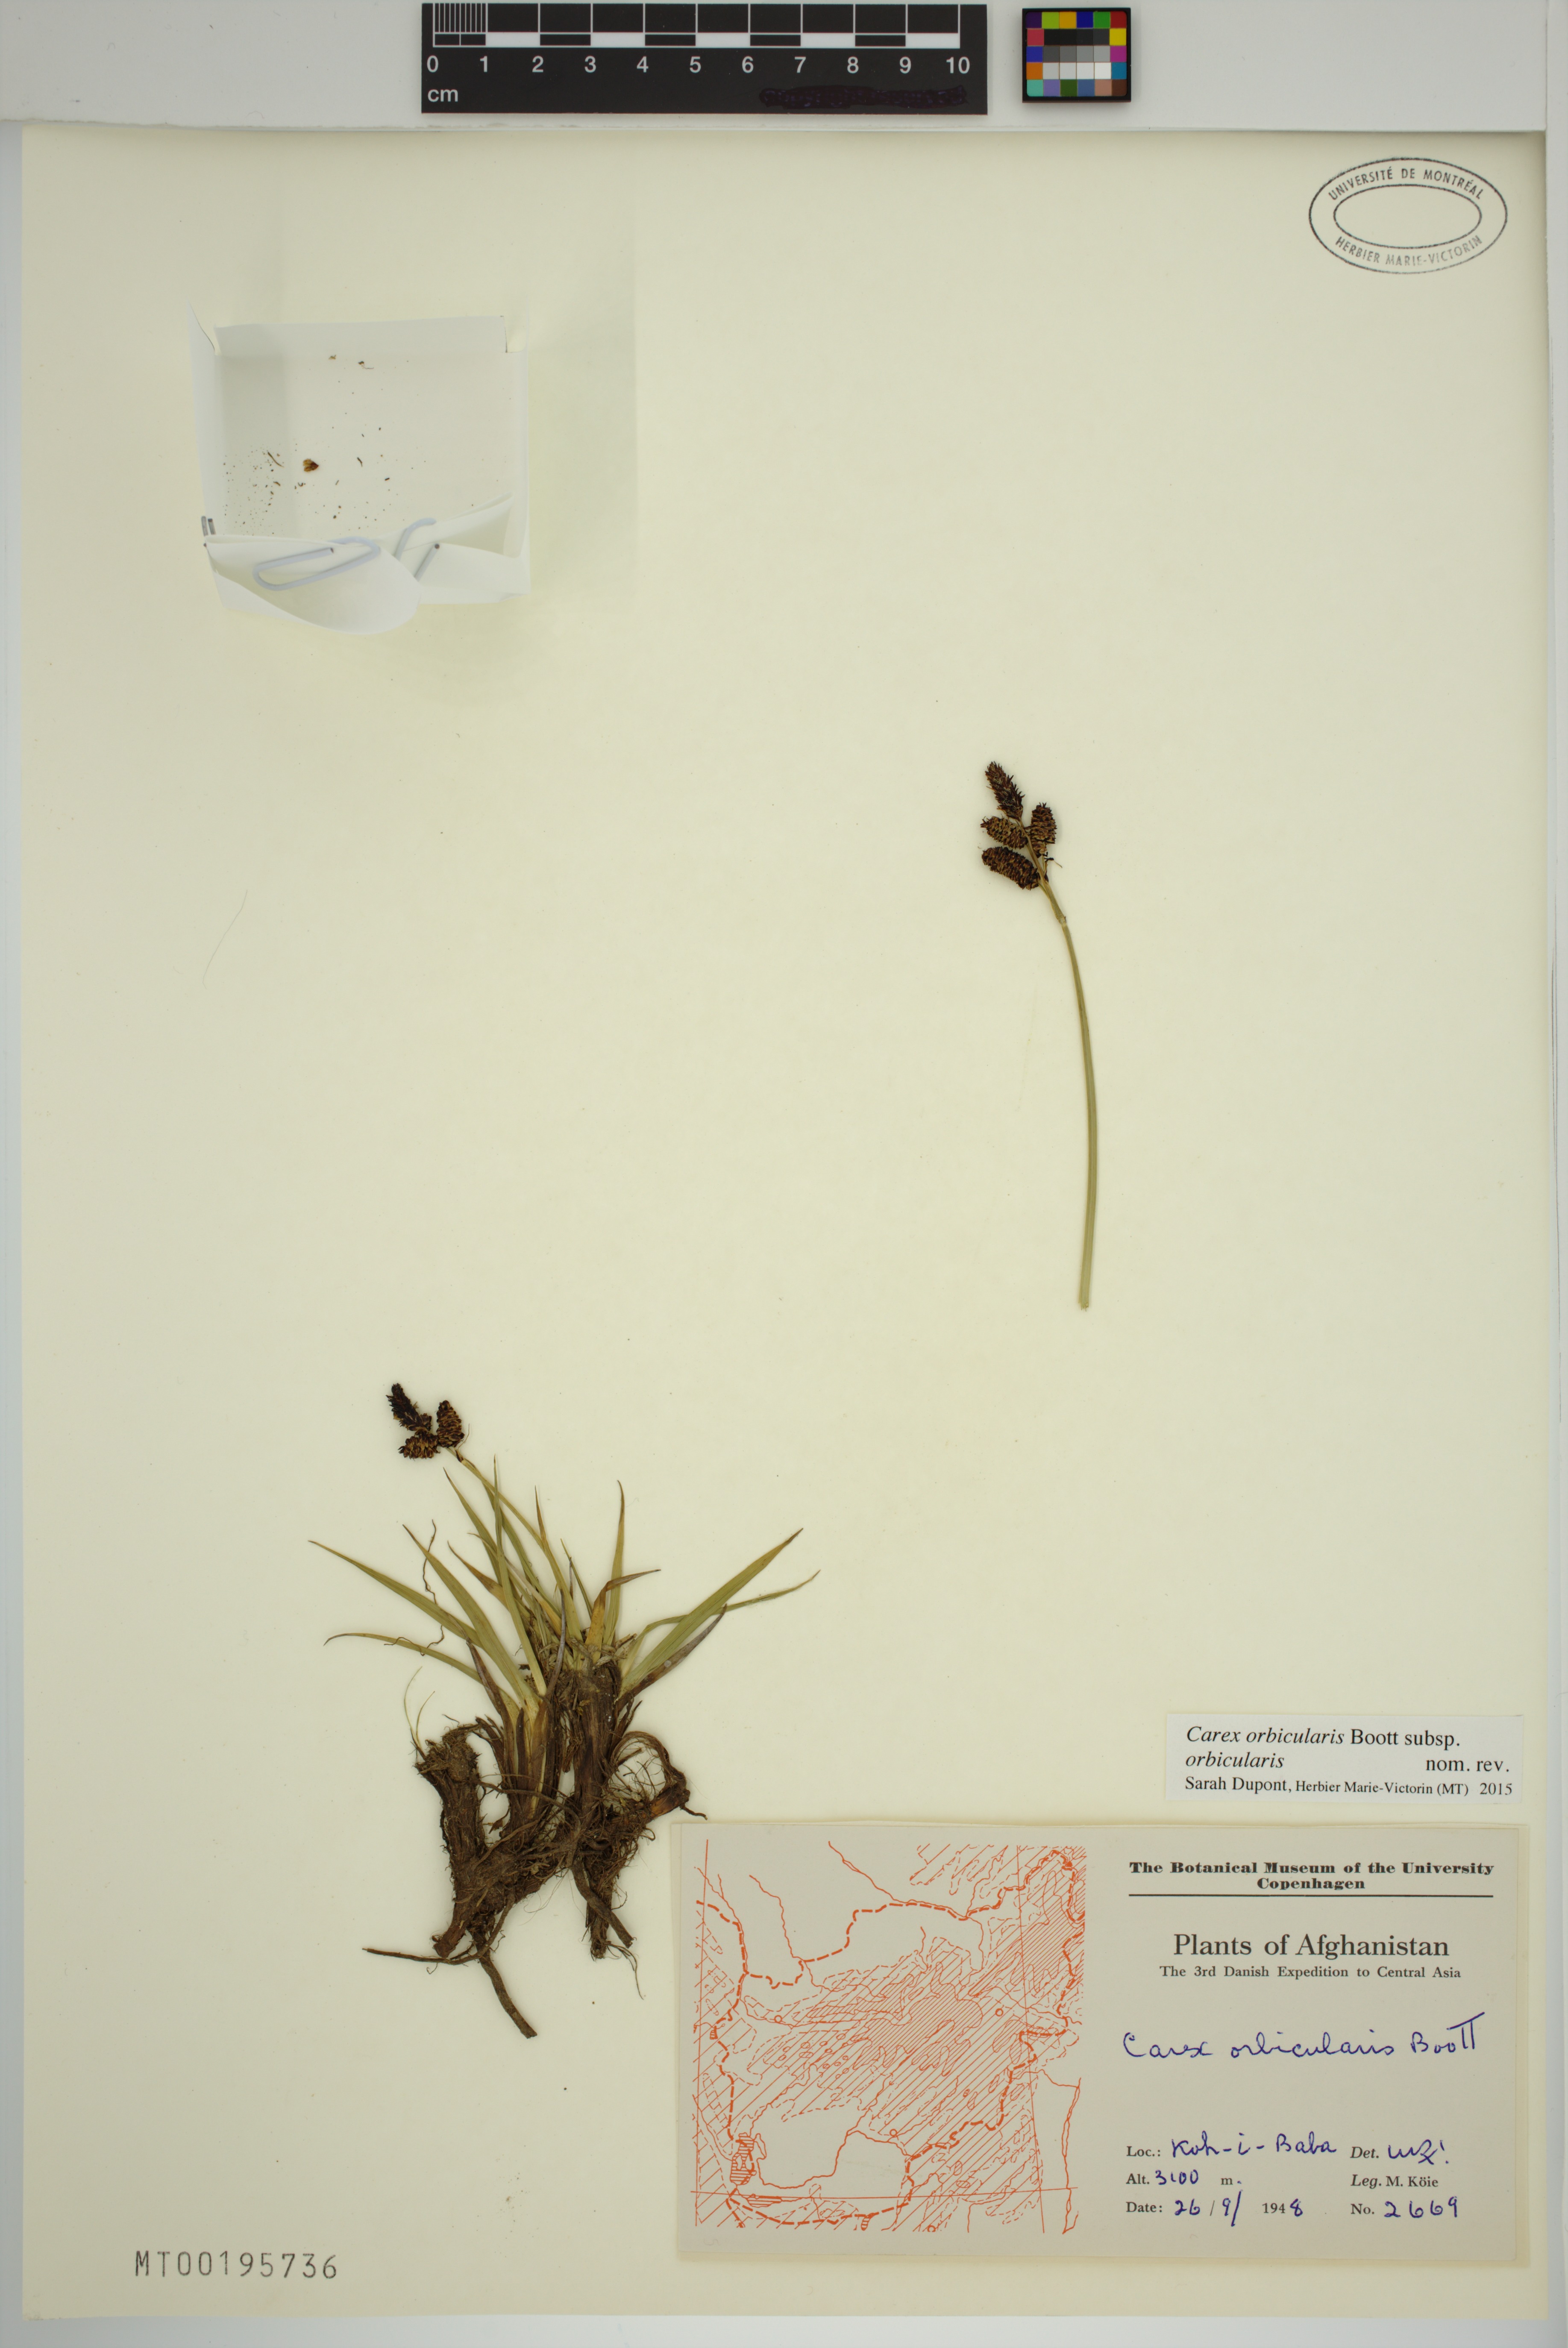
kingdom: Plantae
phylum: Tracheophyta
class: Liliopsida
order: Poales
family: Cyperaceae
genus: Carex
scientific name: Carex orbicularis
